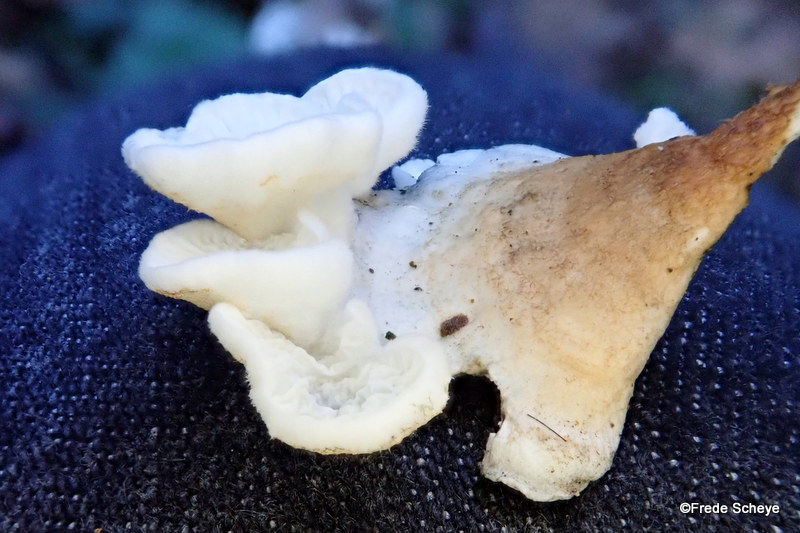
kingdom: Fungi
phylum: Basidiomycota
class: Agaricomycetes
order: Amylocorticiales
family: Amylocorticiaceae
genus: Plicaturopsis
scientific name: Plicaturopsis crispa
